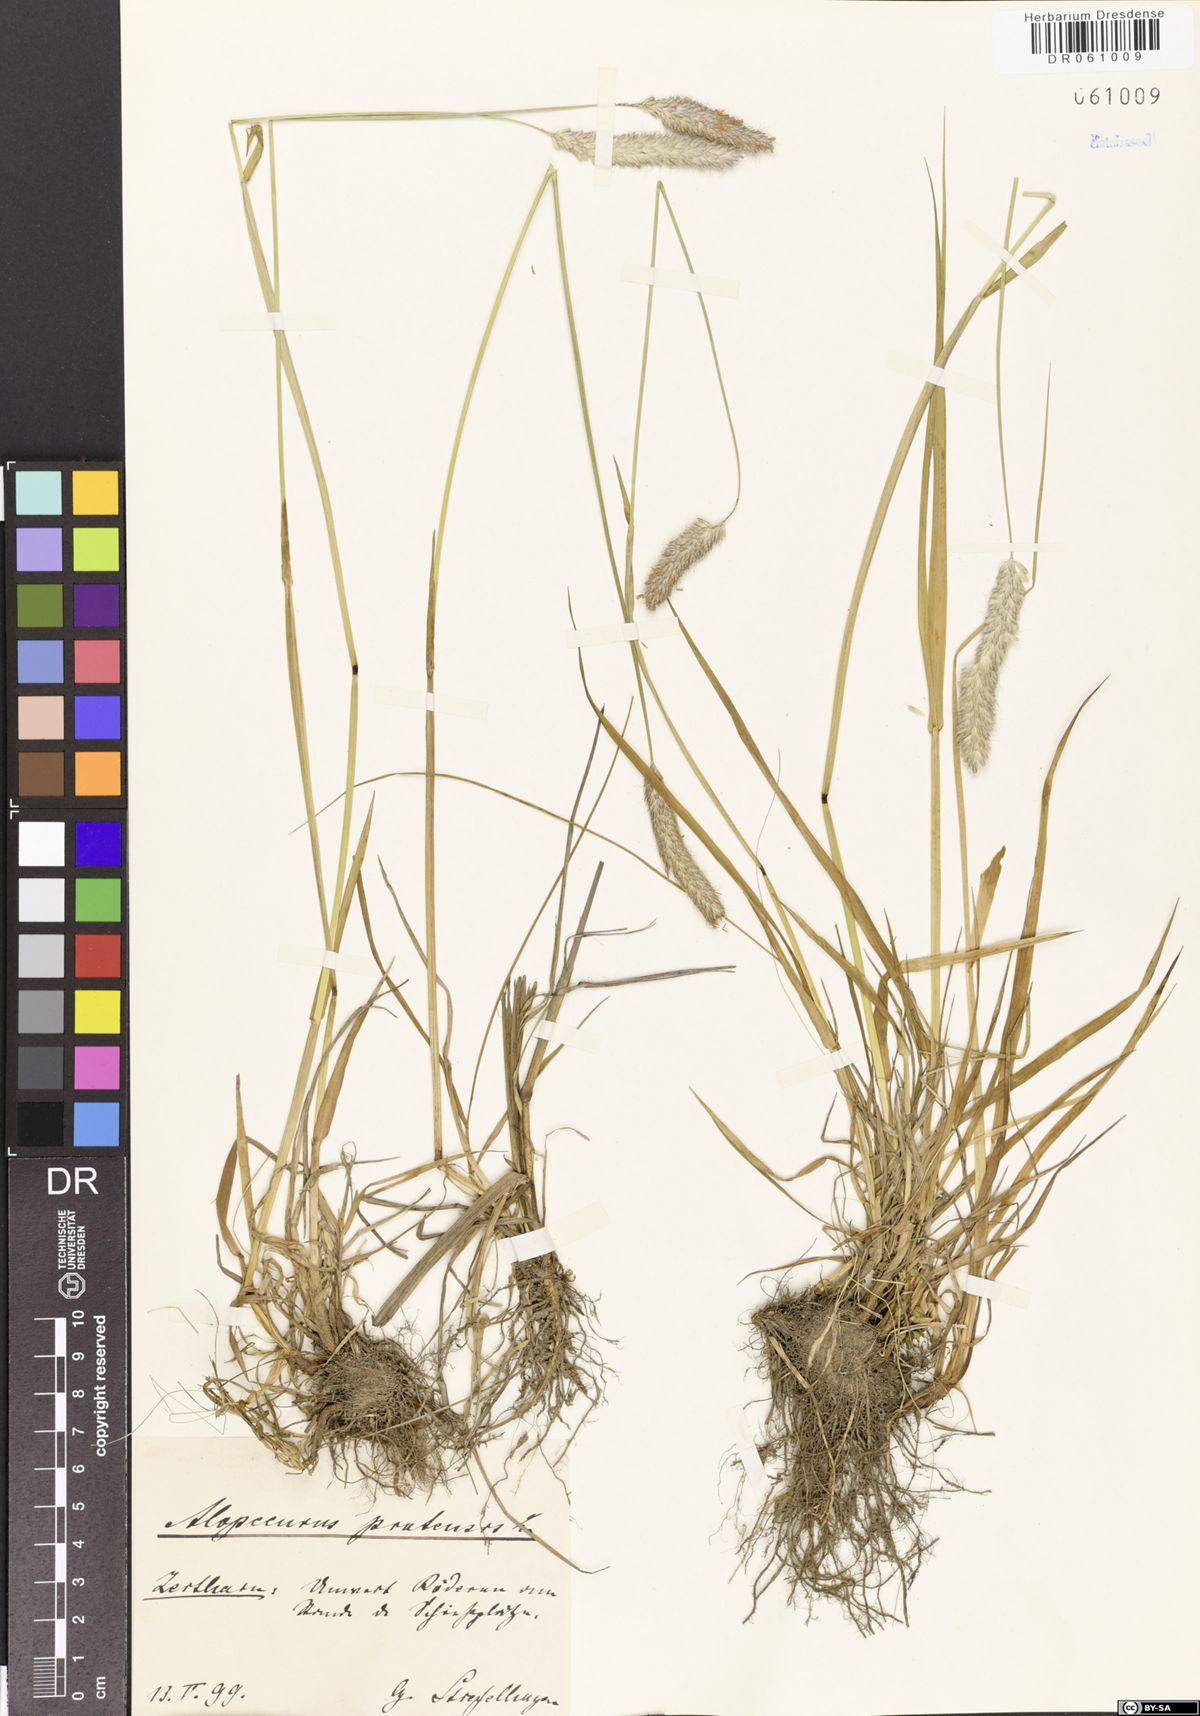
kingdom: Plantae
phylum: Tracheophyta
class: Liliopsida
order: Poales
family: Poaceae
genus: Alopecurus
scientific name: Alopecurus pratensis
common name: Meadow foxtail
